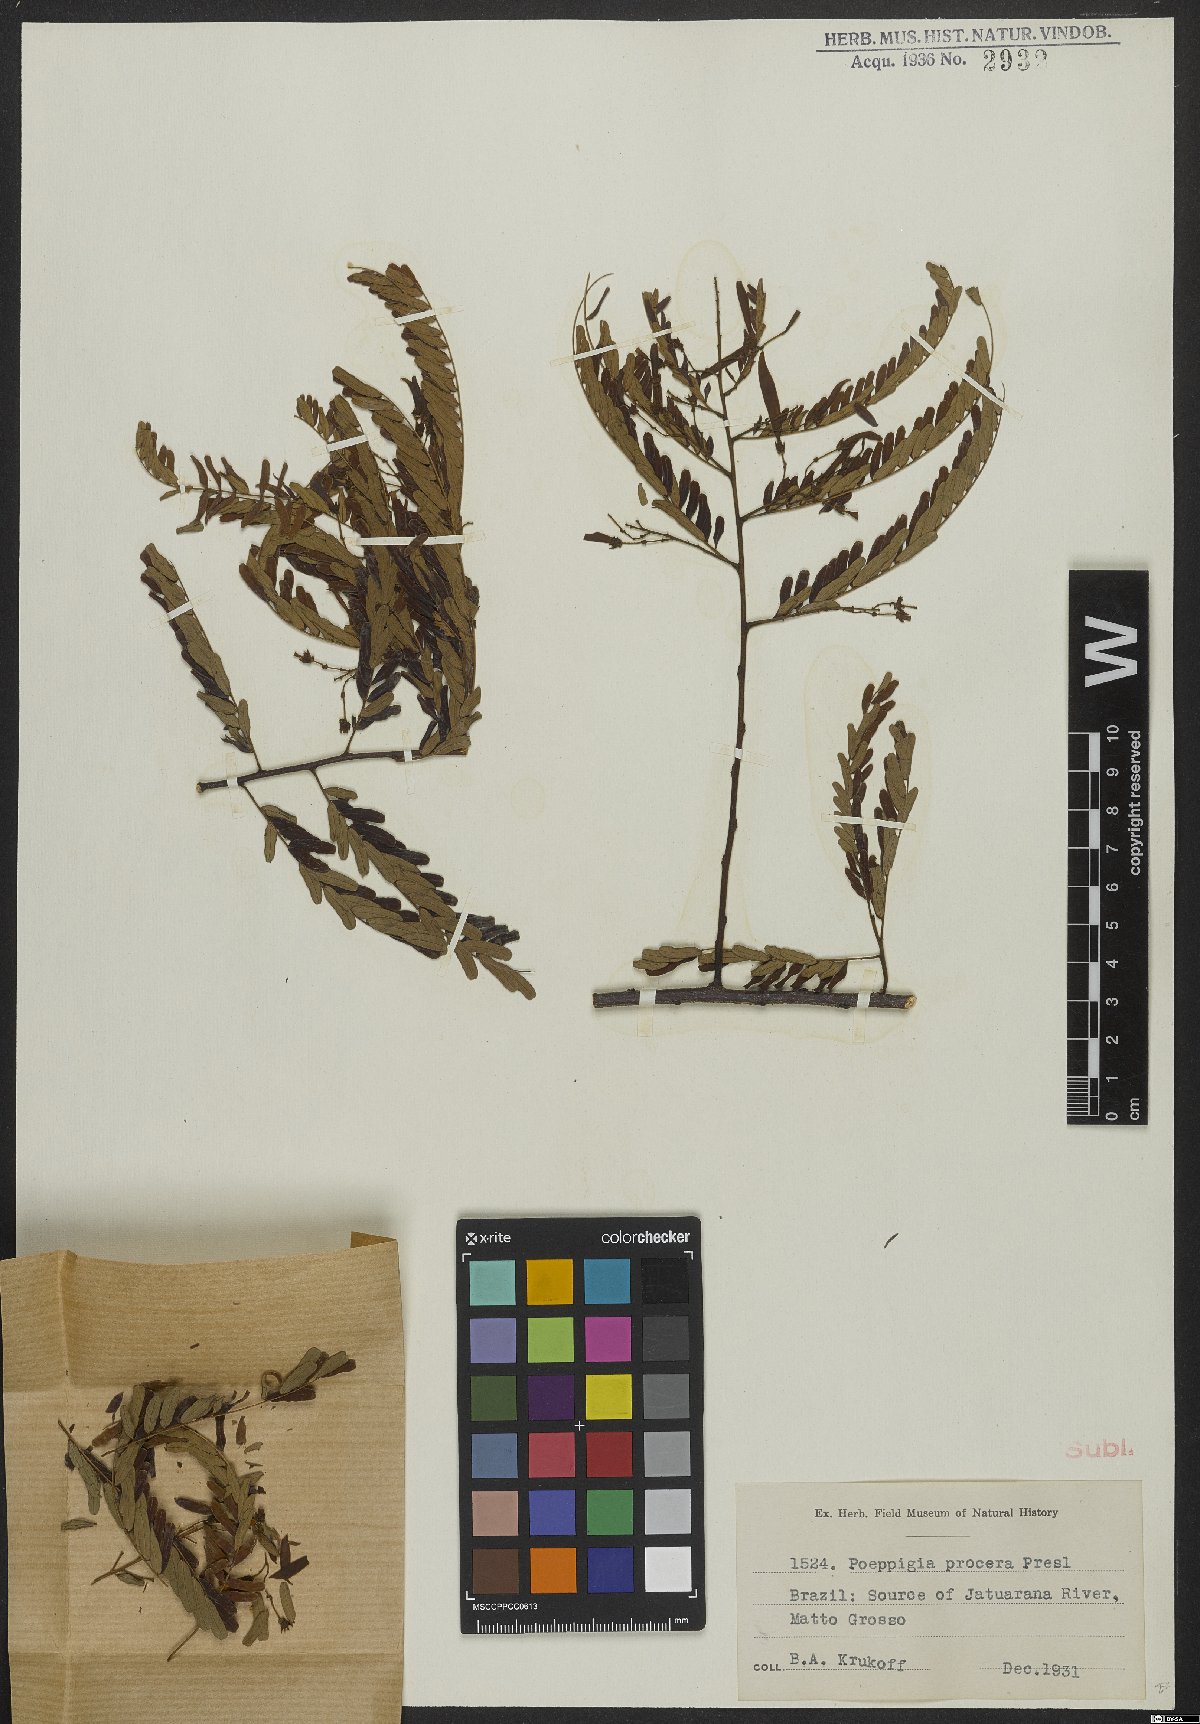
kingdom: Plantae
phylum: Tracheophyta
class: Magnoliopsida
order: Fabales
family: Fabaceae
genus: Poeppigia
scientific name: Poeppigia procera
